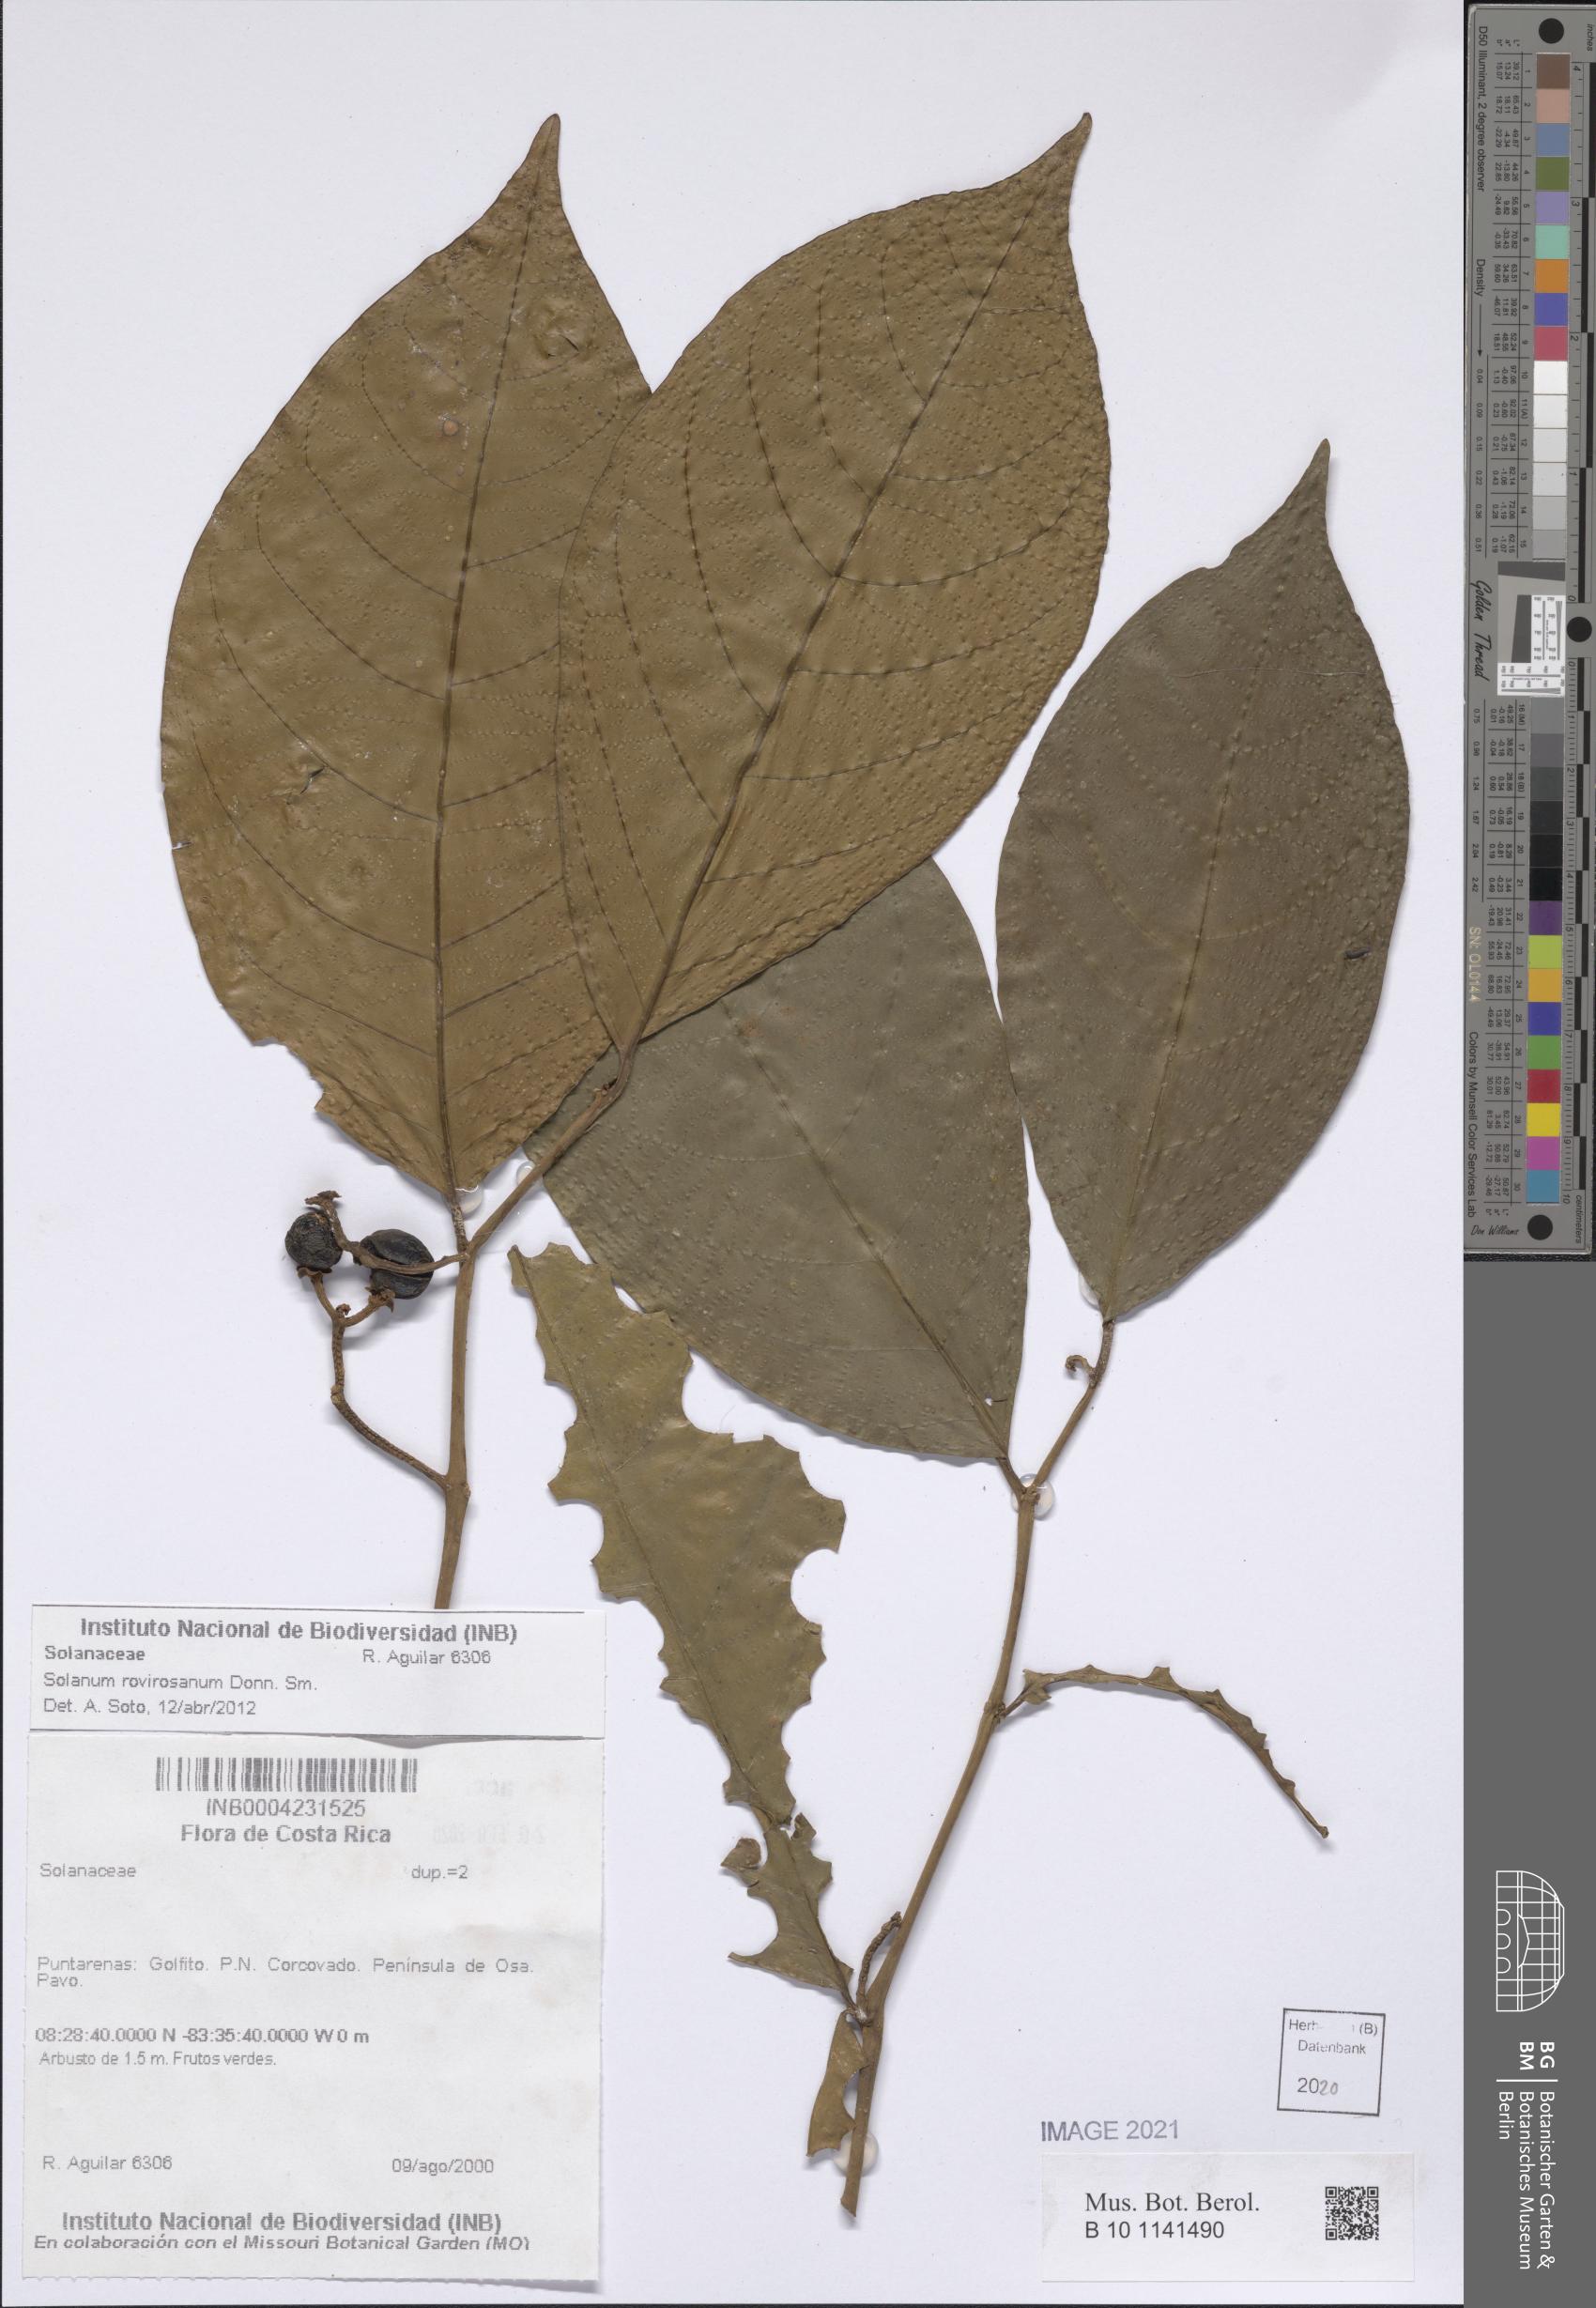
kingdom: Plantae
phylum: Tracheophyta
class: Magnoliopsida
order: Solanales
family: Solanaceae
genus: Solanum
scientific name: Solanum rovirosanum
